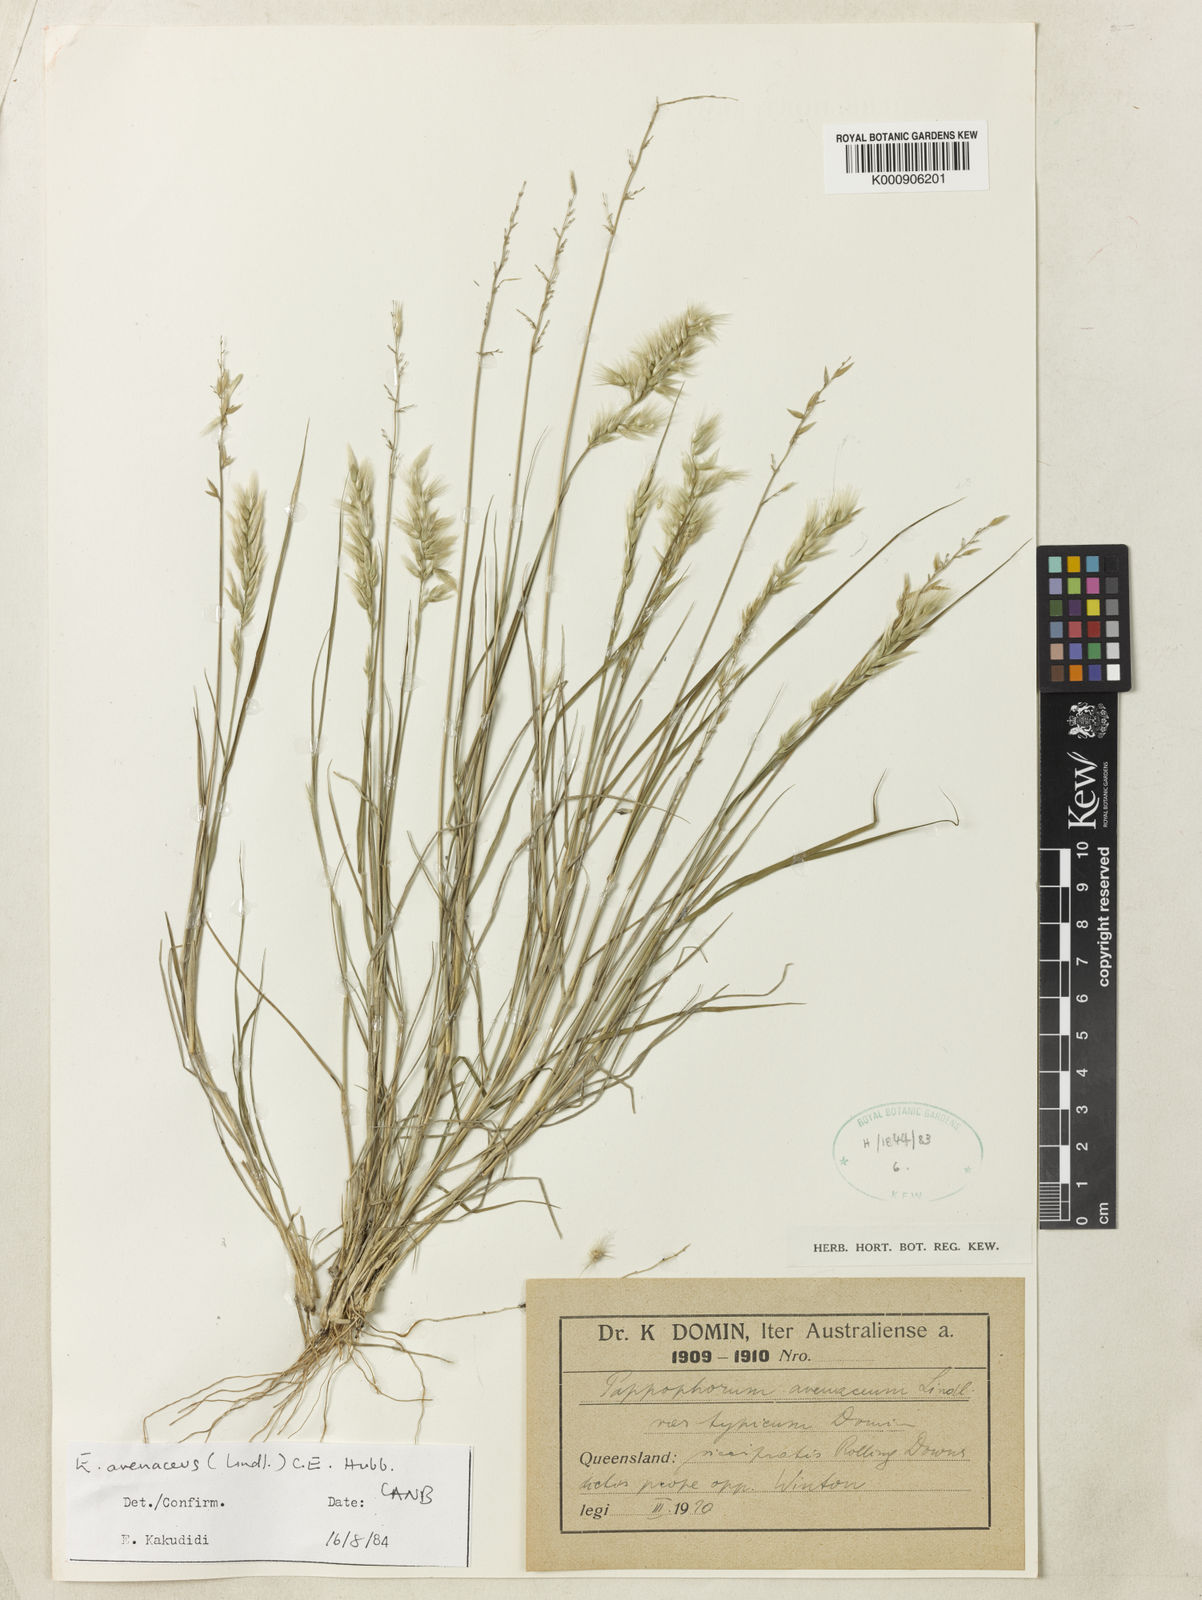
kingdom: Plantae
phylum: Tracheophyta
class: Liliopsida
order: Poales
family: Poaceae
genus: Enneapogon
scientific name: Enneapogon avenaceus
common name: Hairy oat grass
